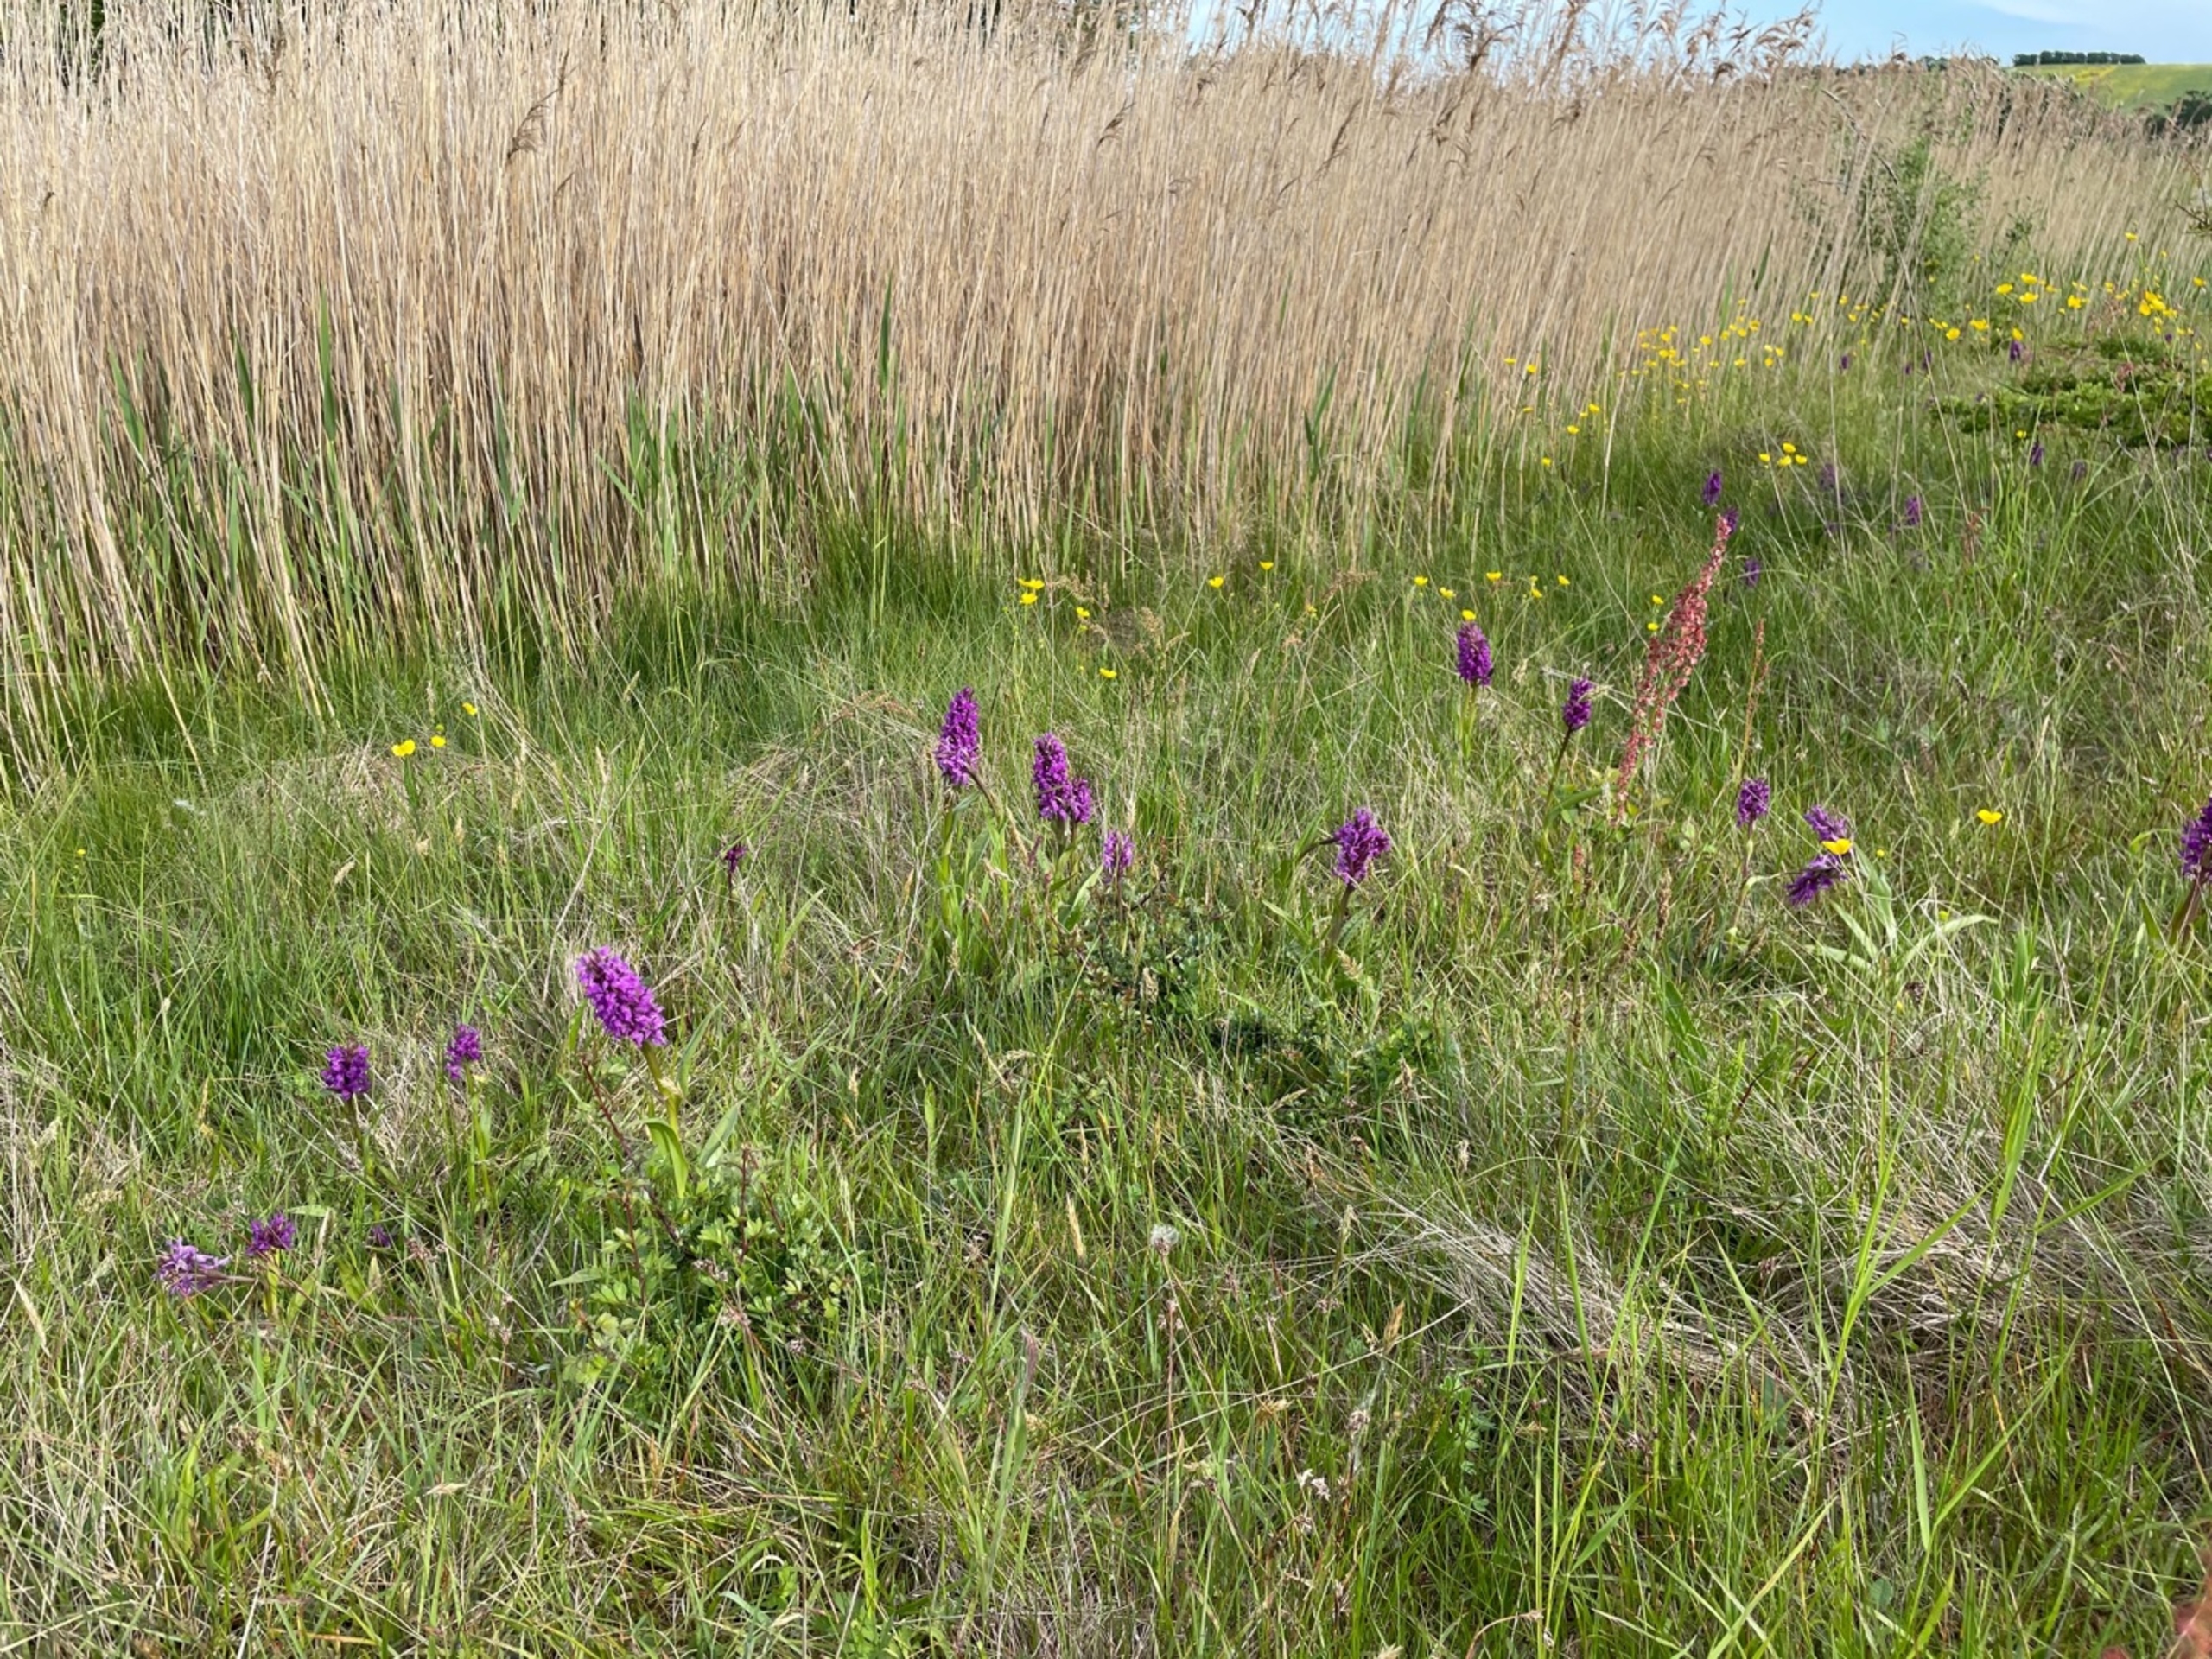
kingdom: Plantae
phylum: Tracheophyta
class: Liliopsida
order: Asparagales
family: Orchidaceae
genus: Dactylorhiza
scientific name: Dactylorhiza majalis
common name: Maj-gøgeurt
